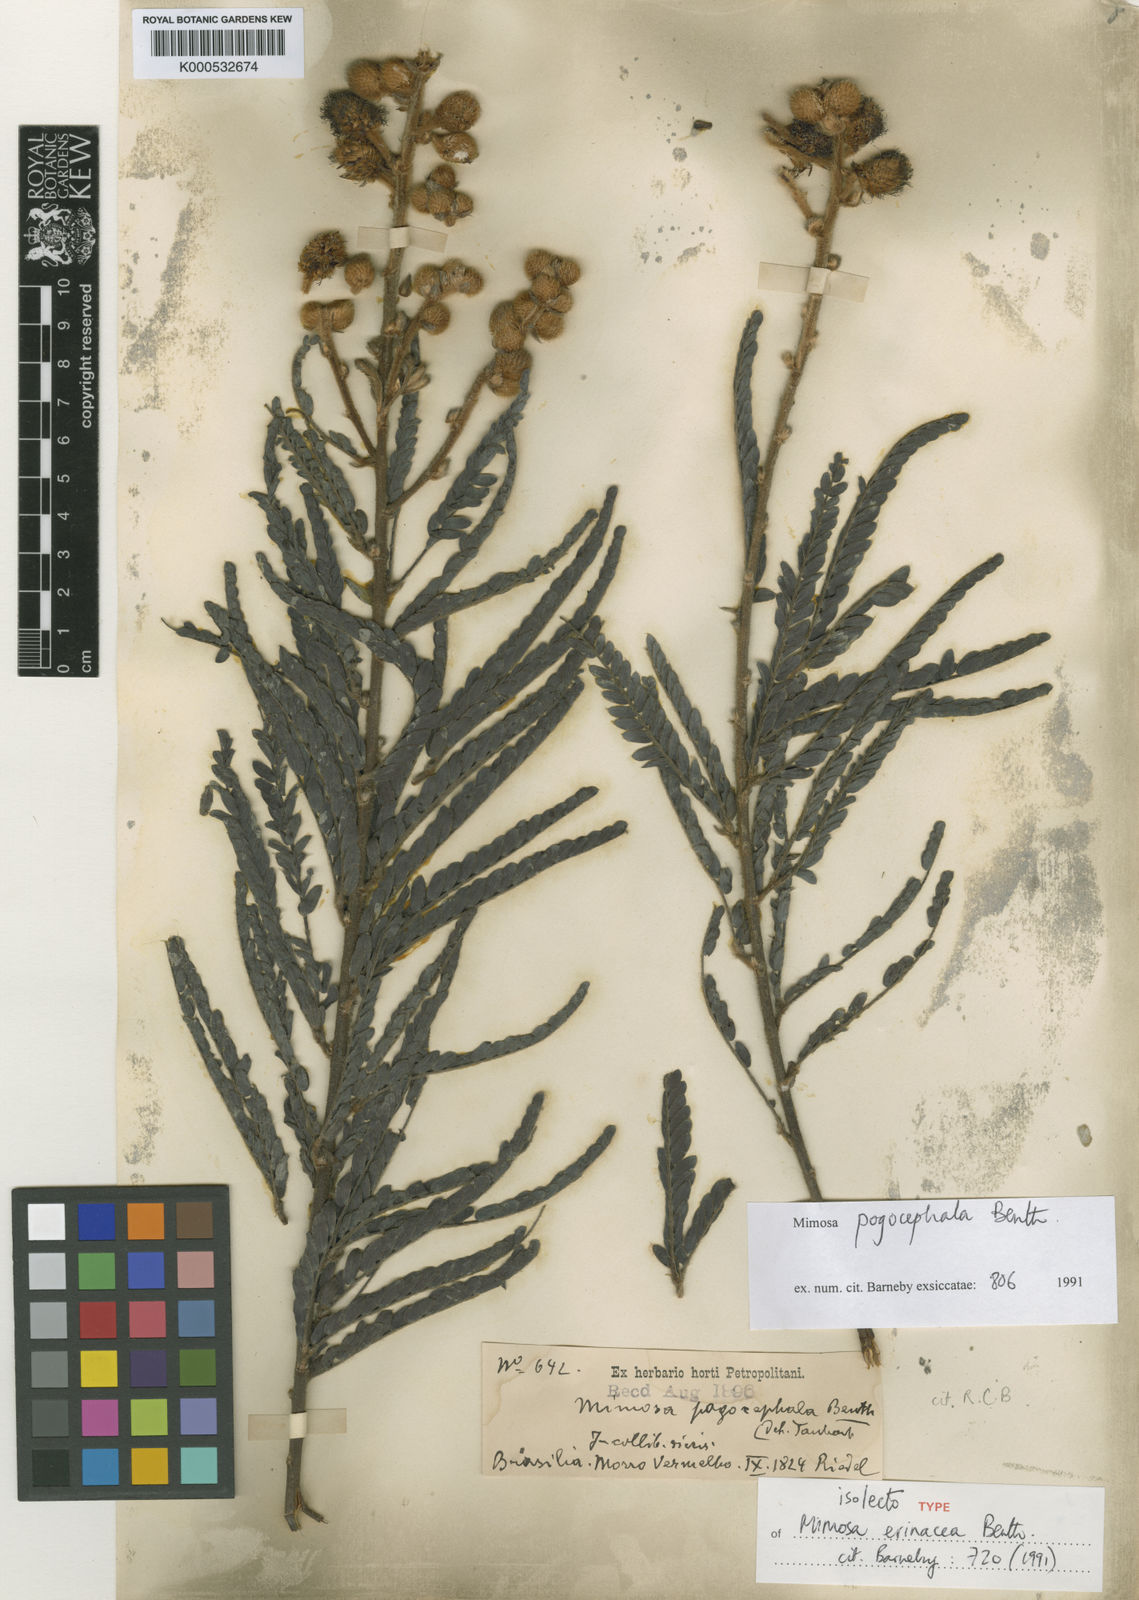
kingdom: Plantae
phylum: Tracheophyta
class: Magnoliopsida
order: Fabales
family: Fabaceae
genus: Mimosa
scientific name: Mimosa pogonoclada
